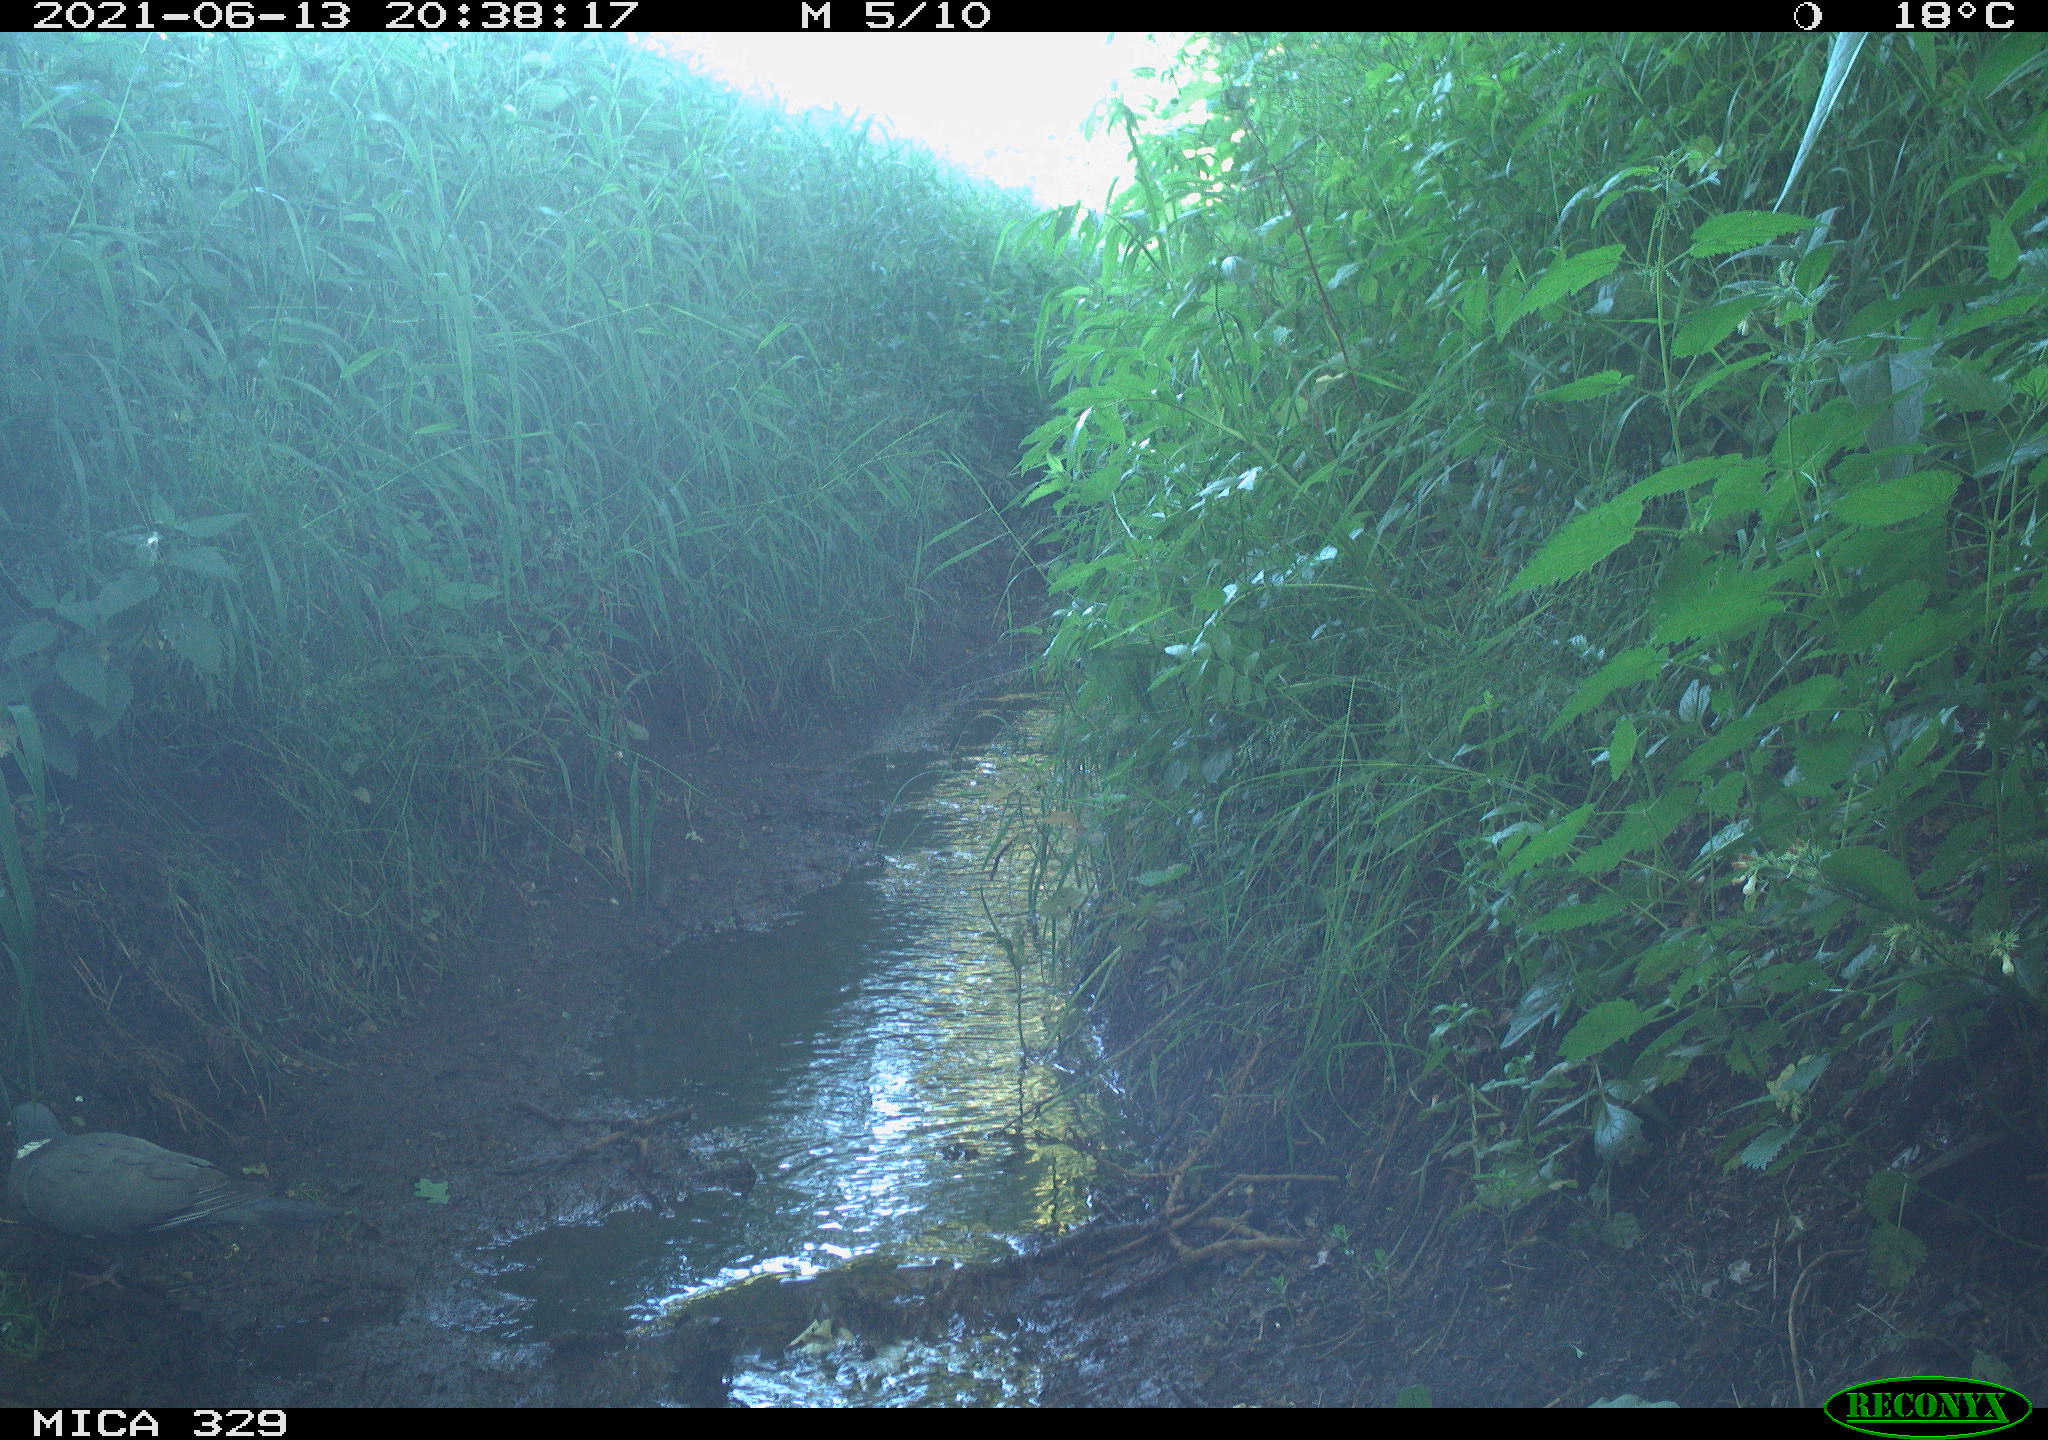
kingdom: Animalia
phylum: Chordata
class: Aves
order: Columbiformes
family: Columbidae
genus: Columba
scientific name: Columba palumbus
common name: Common wood pigeon
